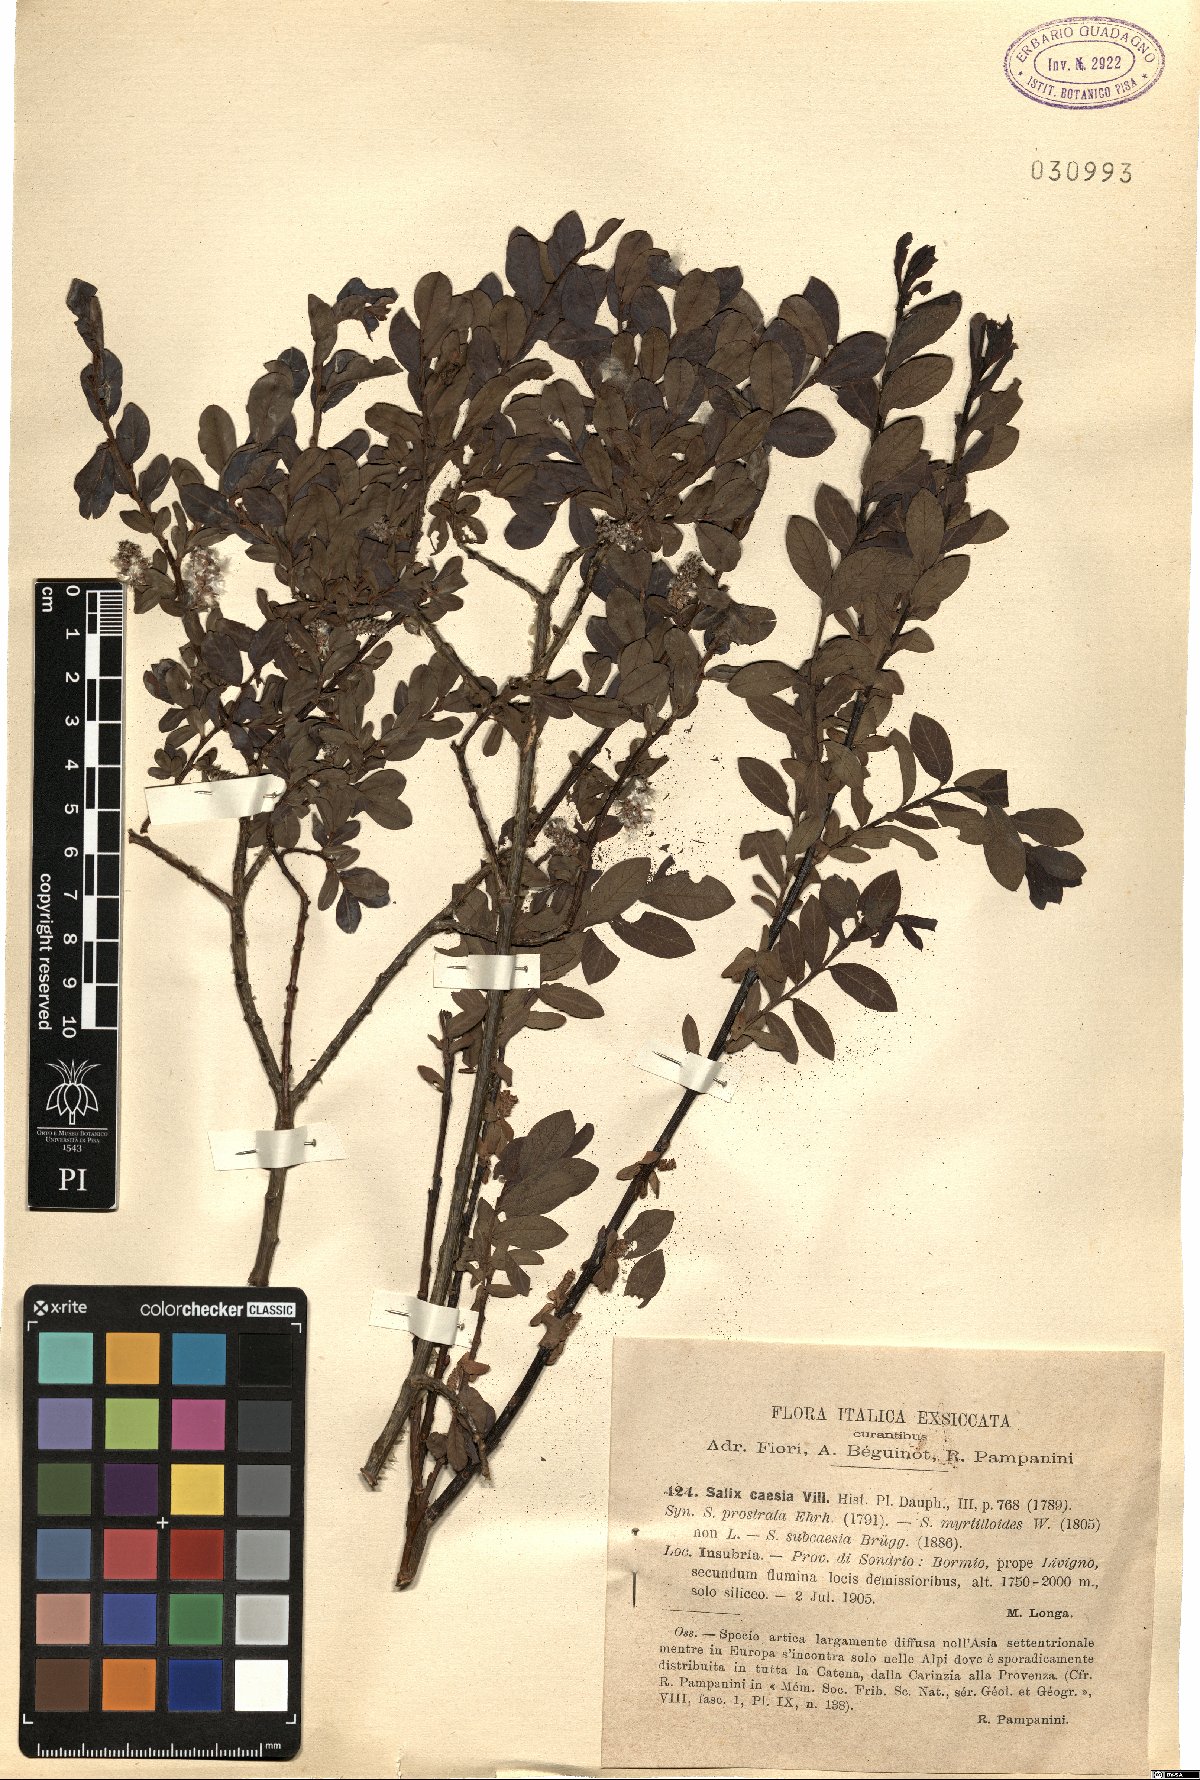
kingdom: Plantae
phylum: Tracheophyta
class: Magnoliopsida
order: Malpighiales
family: Salicaceae
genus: Salix
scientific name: Salix caesia
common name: Blue willow
